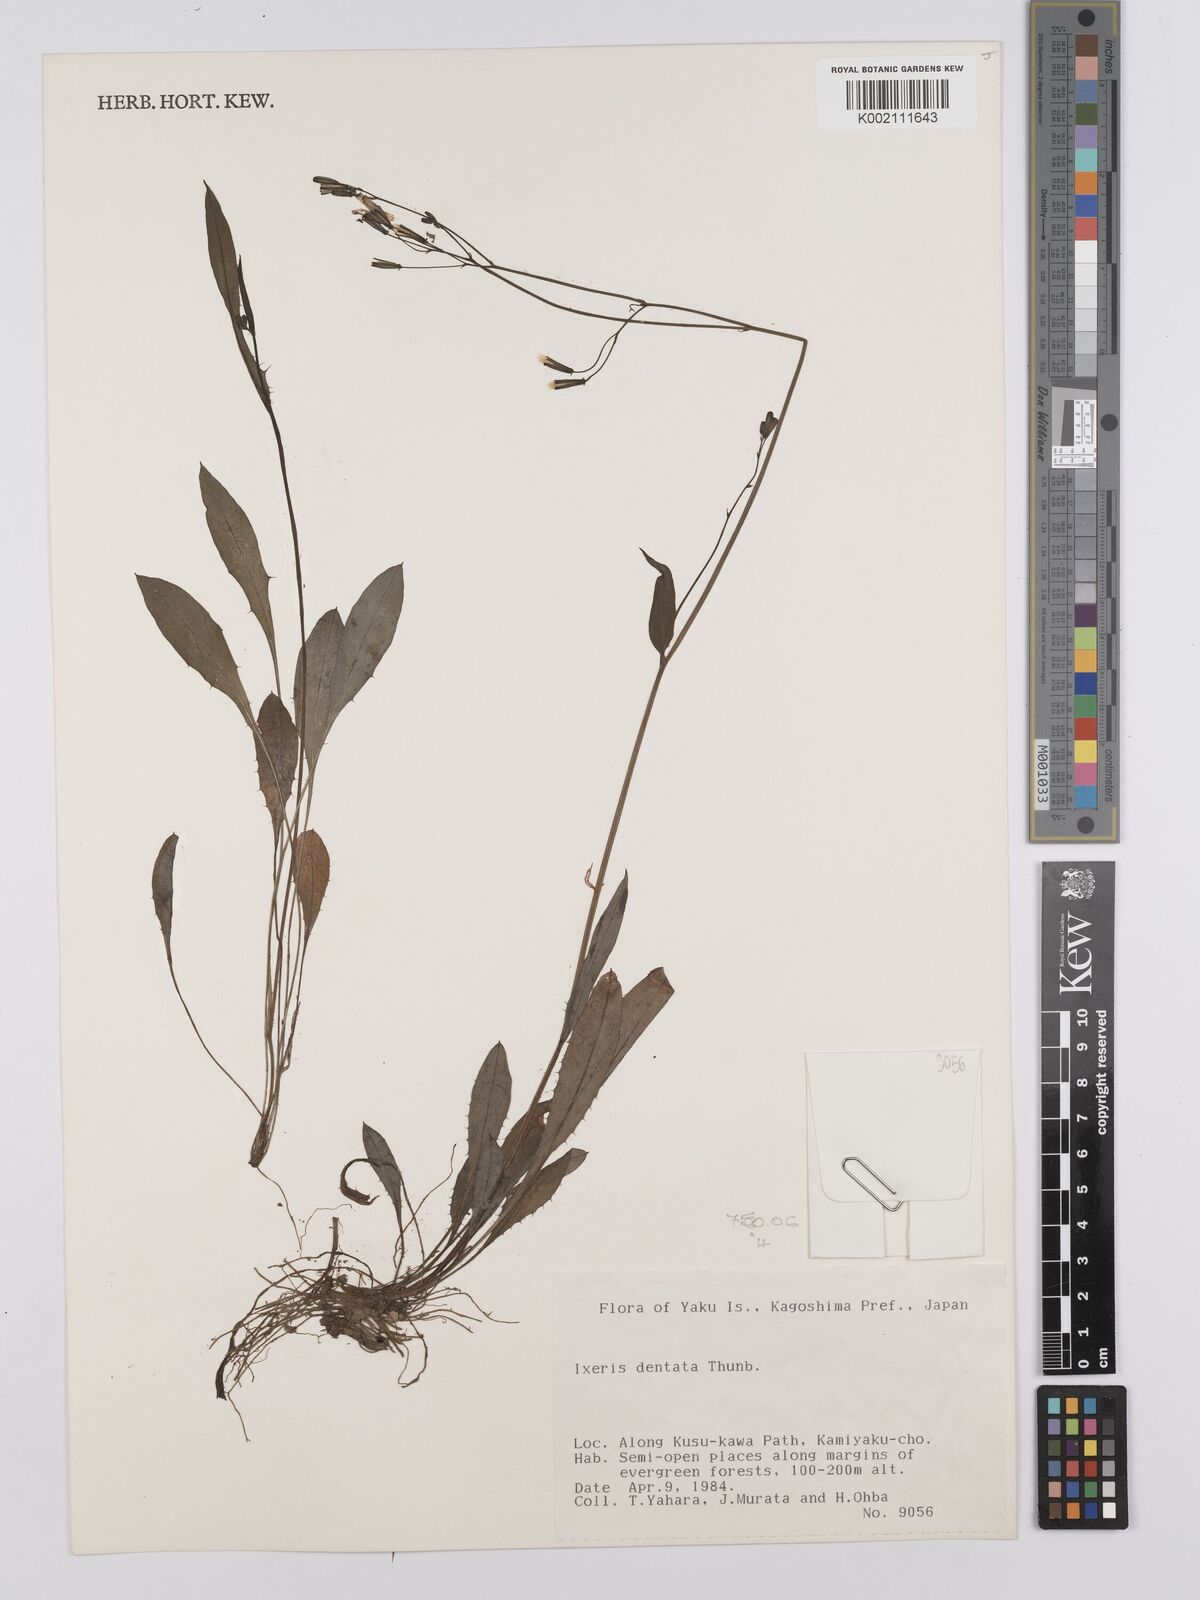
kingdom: Plantae
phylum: Tracheophyta
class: Magnoliopsida
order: Asterales
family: Asteraceae
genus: Ixeridium
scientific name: Ixeridium dentatum
